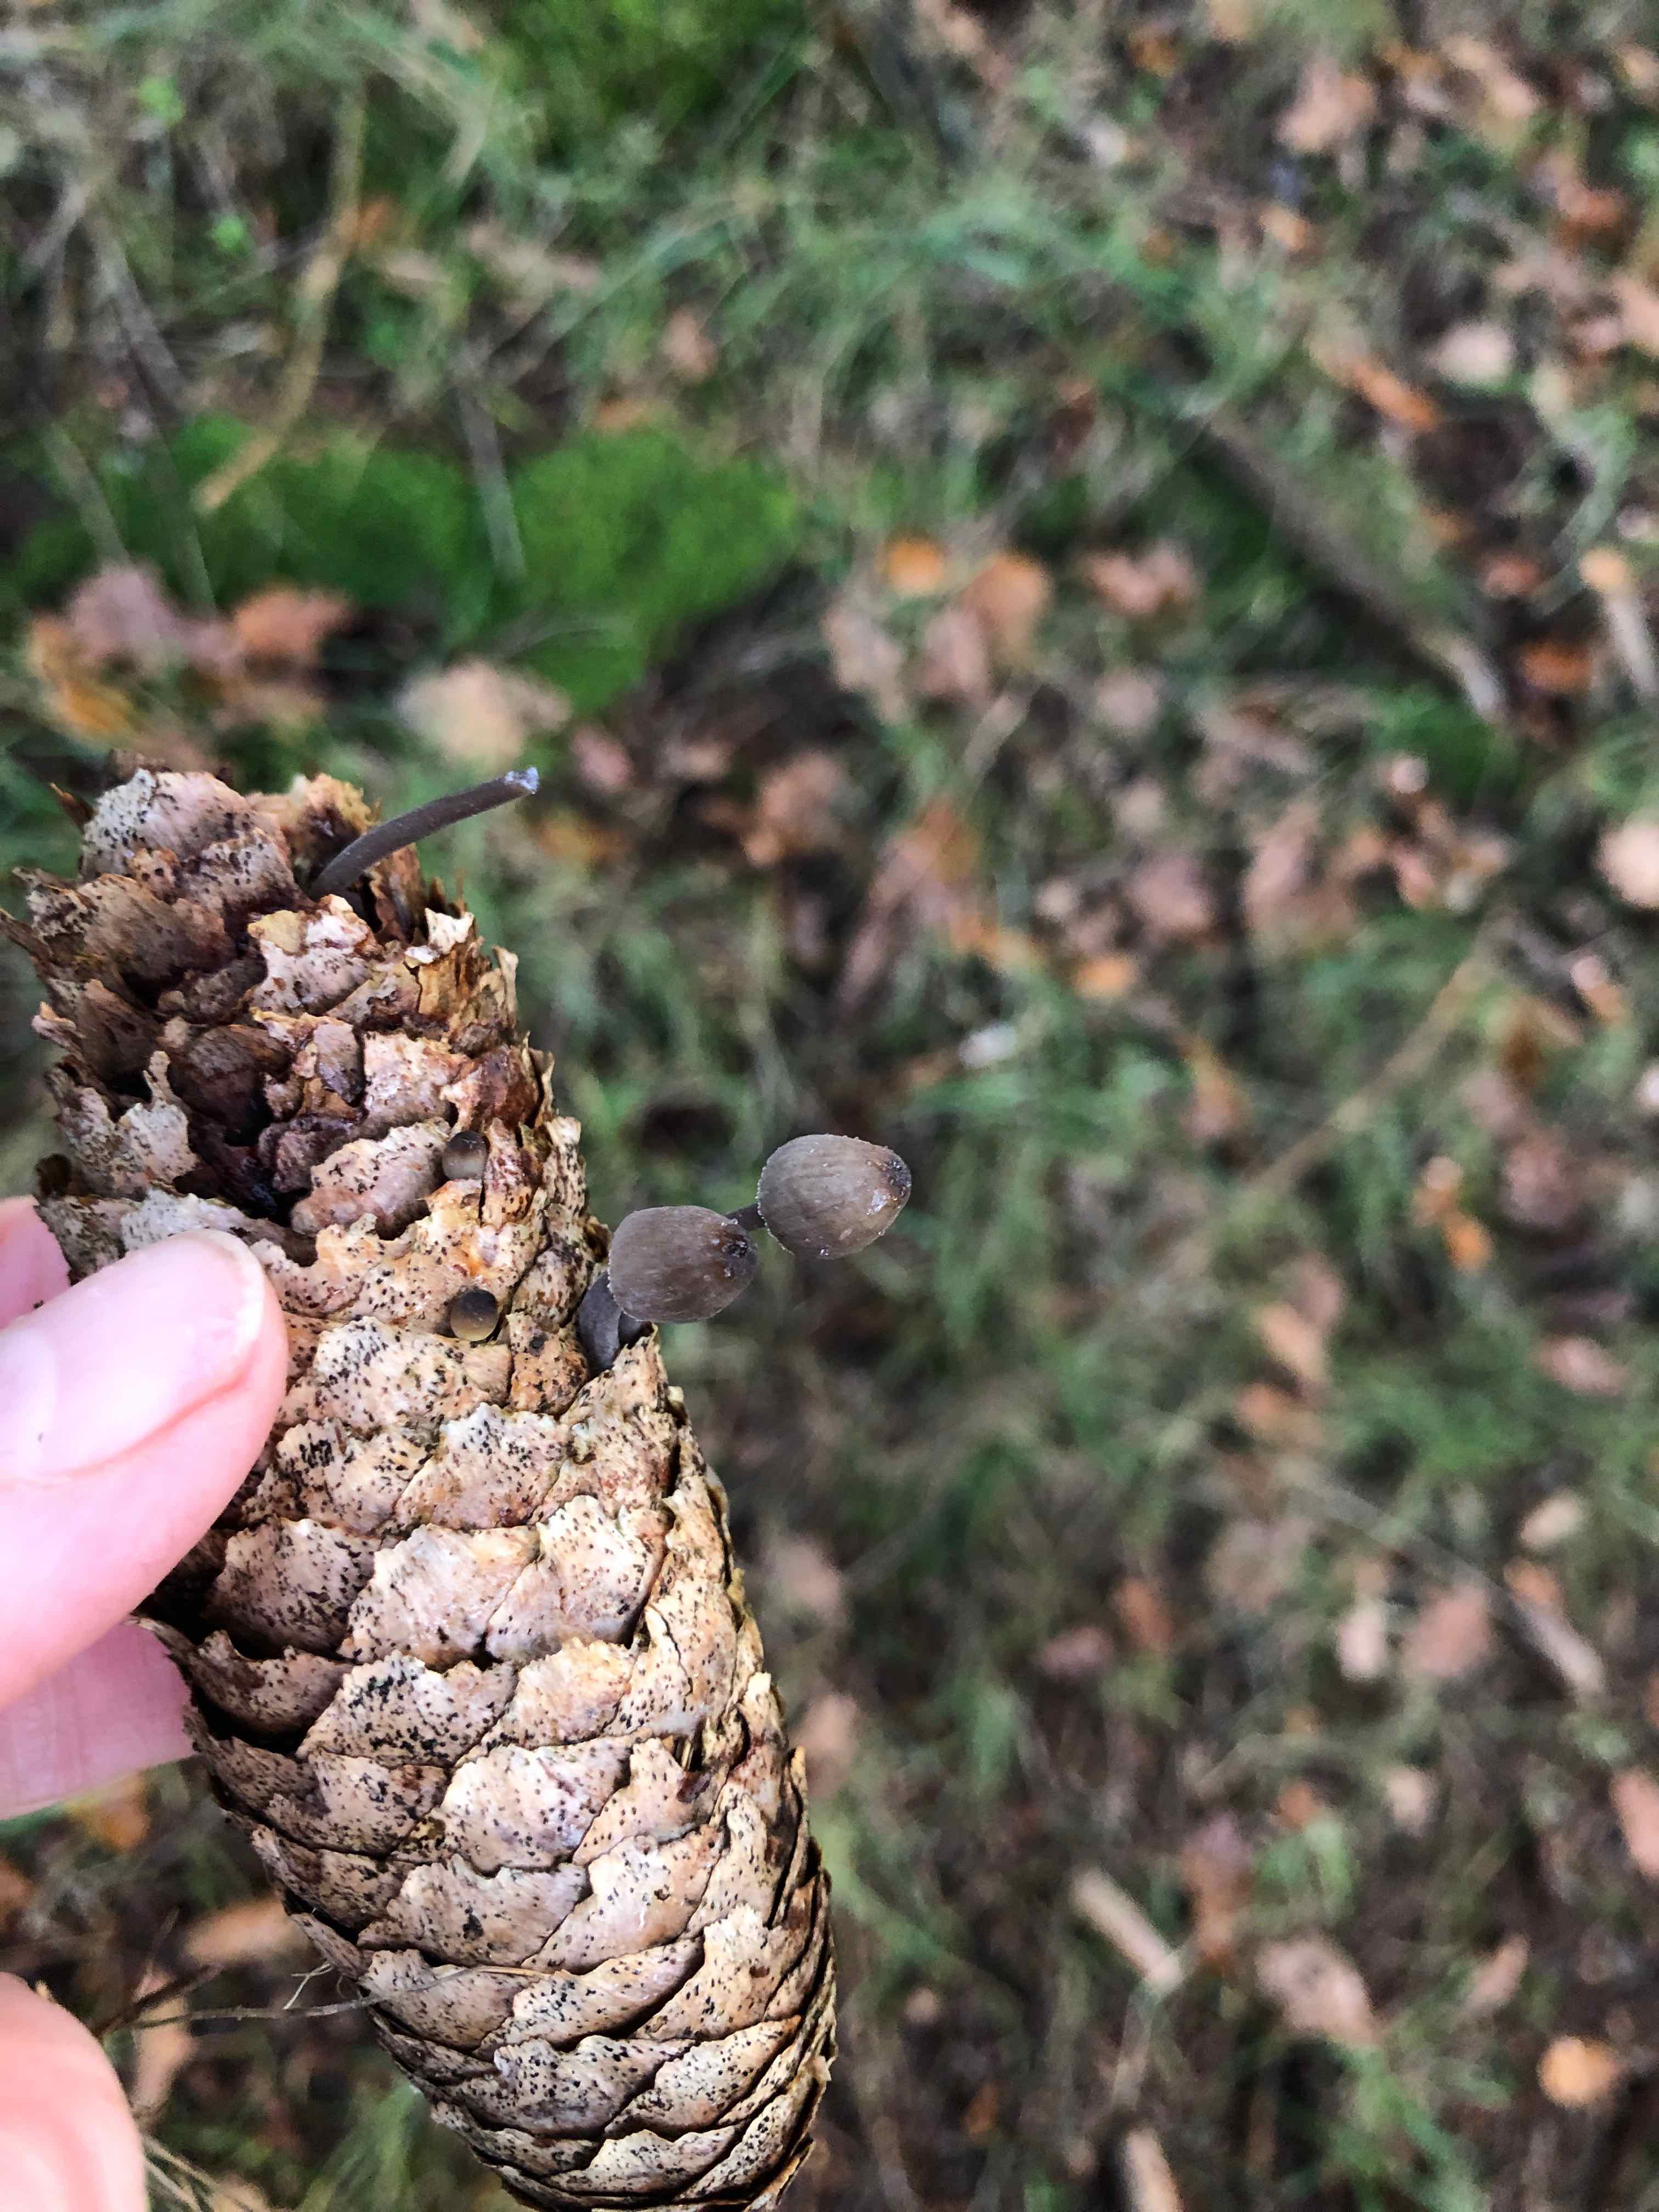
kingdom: Fungi
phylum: Basidiomycota
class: Agaricomycetes
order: Agaricales
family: Mycenaceae
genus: Mycena
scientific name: Mycena galopus
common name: hvidmælket huesvamp
